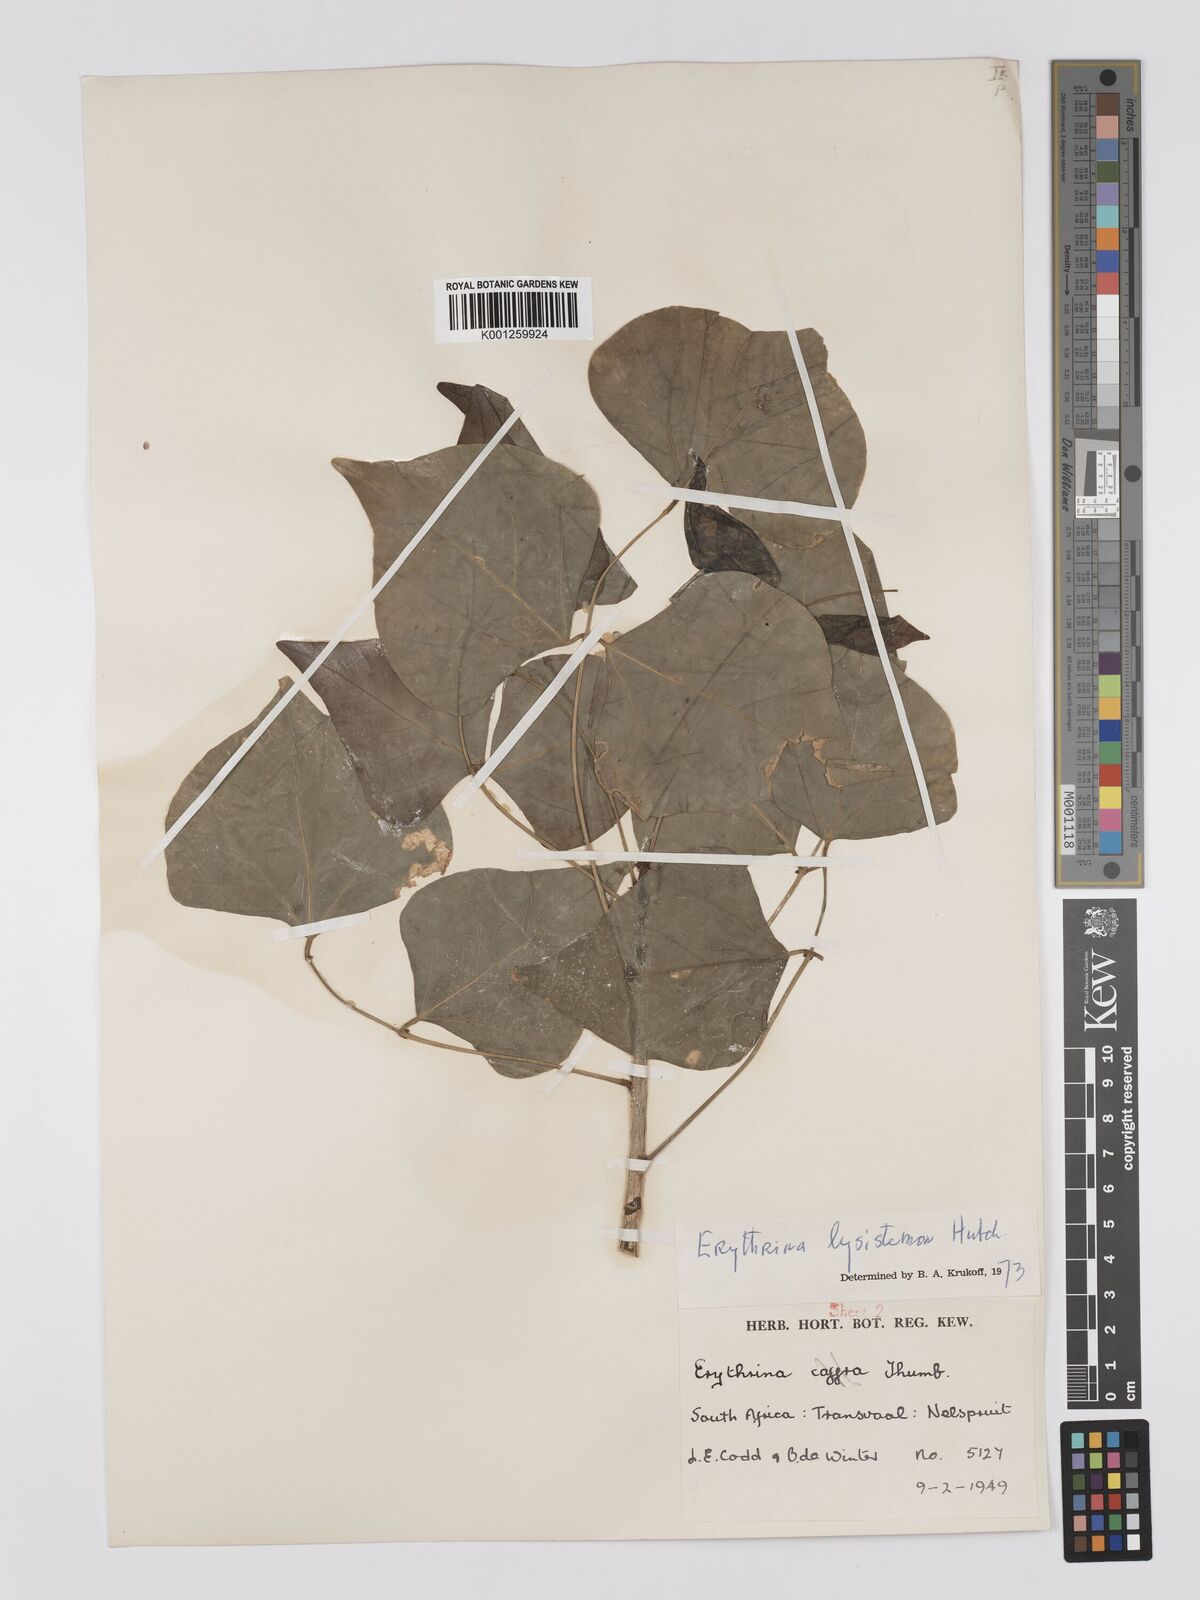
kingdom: Plantae
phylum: Tracheophyta
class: Magnoliopsida
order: Fabales
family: Fabaceae
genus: Erythrina
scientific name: Erythrina lysistemon
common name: Common coral tree
